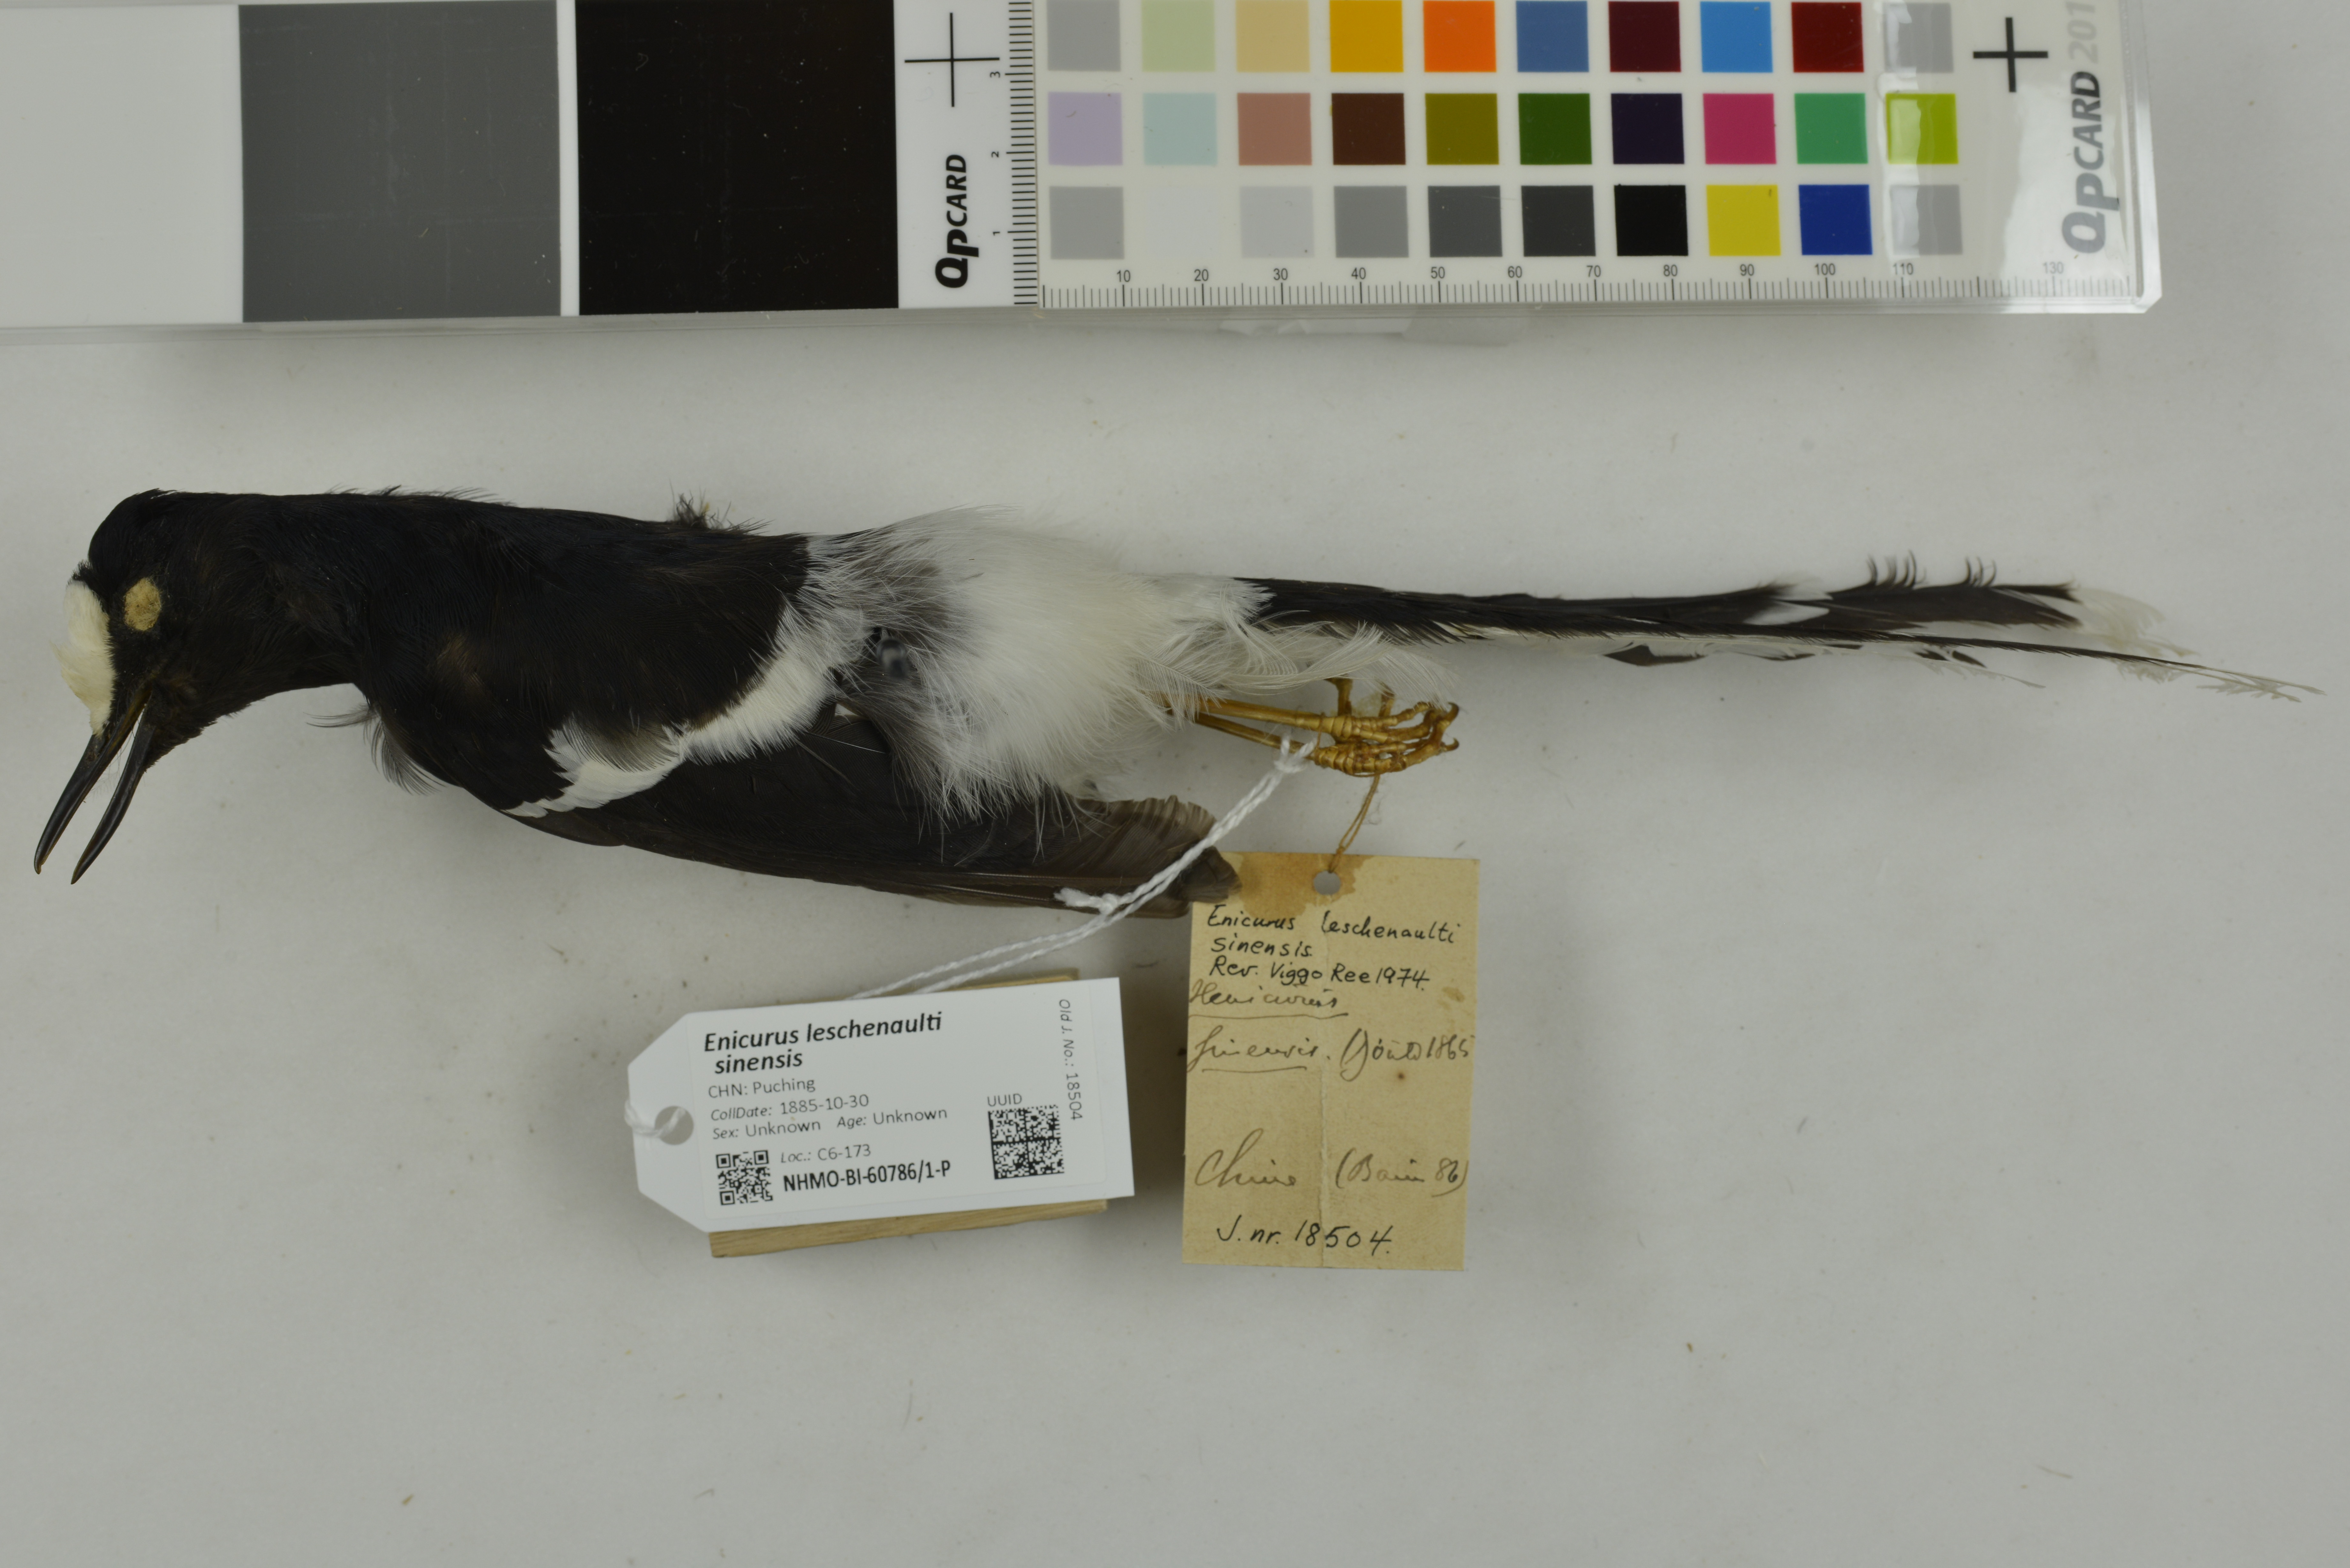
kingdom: Animalia
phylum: Chordata
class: Aves
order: Passeriformes
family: Muscicapidae
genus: Enicurus
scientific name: Enicurus leschenaulti
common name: White-crowned forktail
